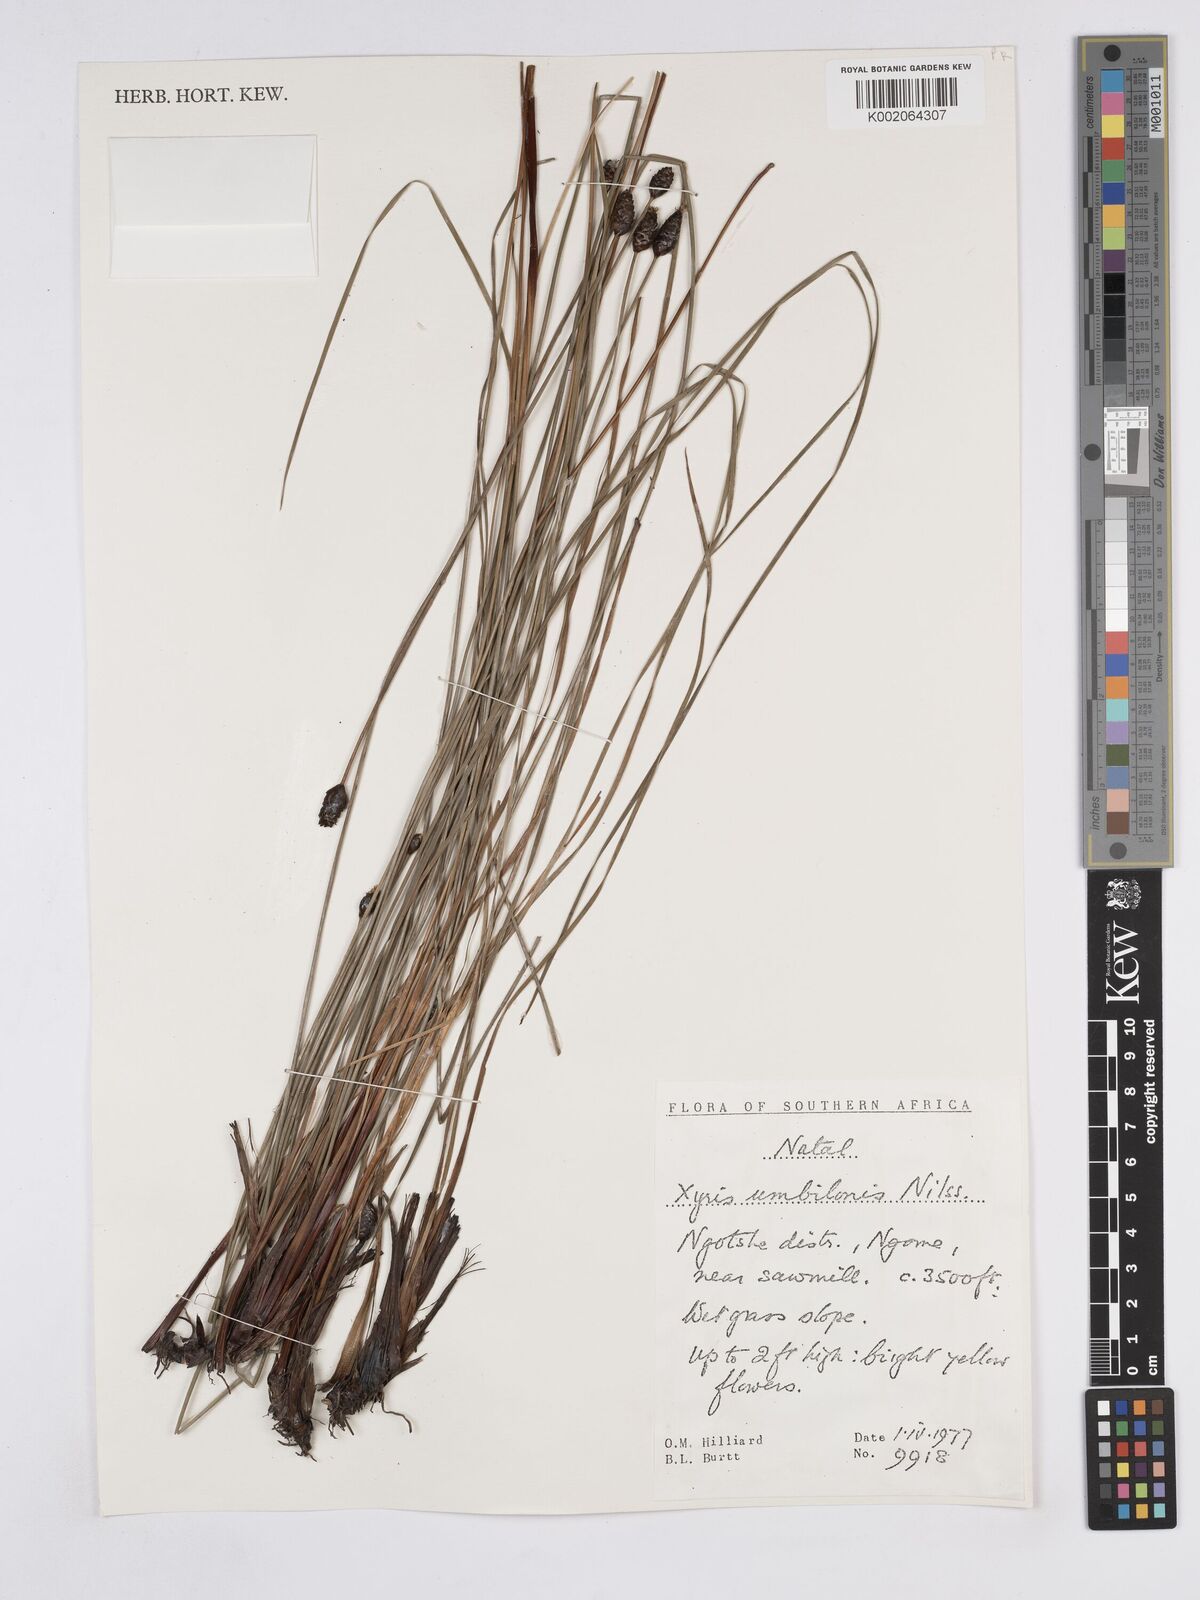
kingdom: Plantae
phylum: Tracheophyta
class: Liliopsida
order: Poales
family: Xyridaceae
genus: Xyris
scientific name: Xyris congensis
